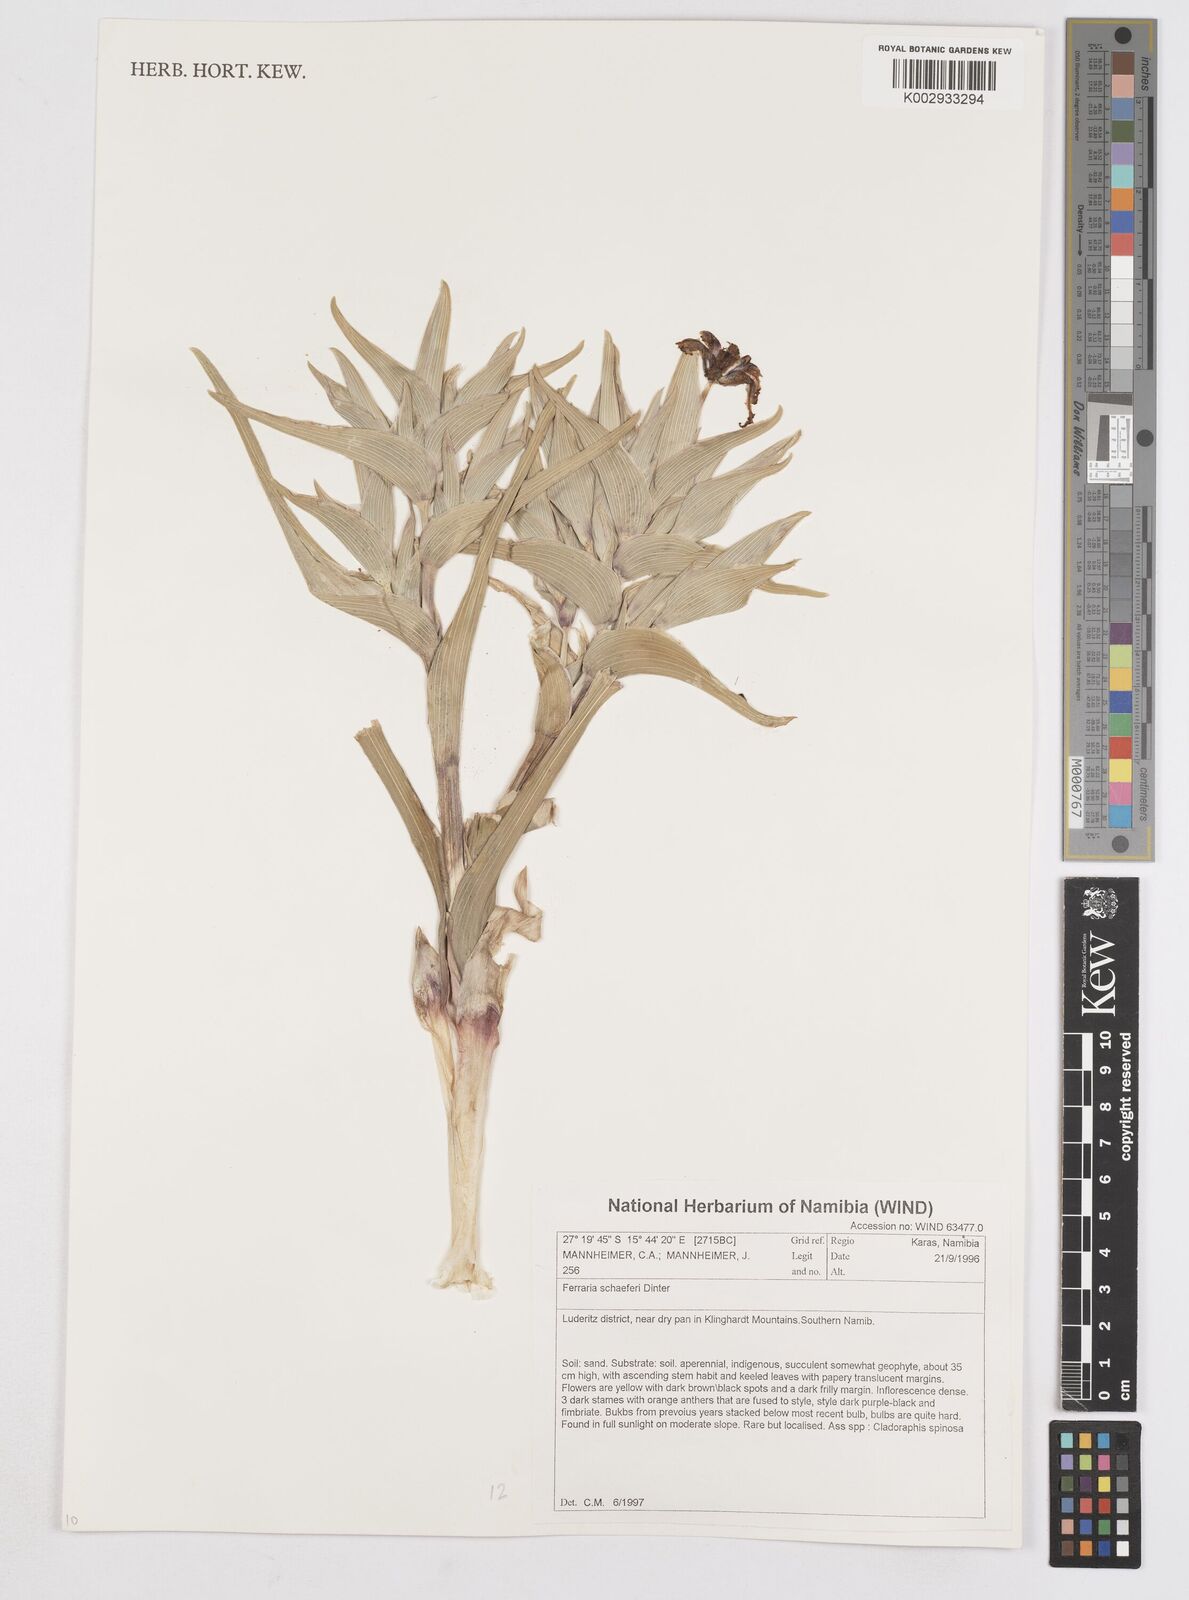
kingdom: Plantae
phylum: Tracheophyta
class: Liliopsida
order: Asparagales
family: Iridaceae
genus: Ferraria
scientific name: Ferraria schaeferi
